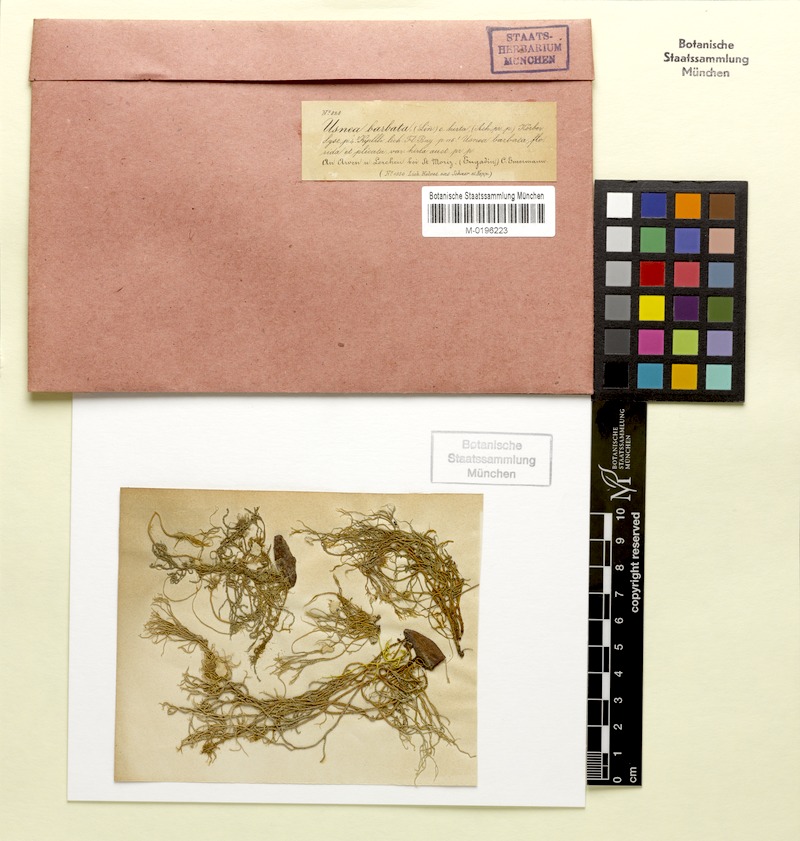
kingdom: Fungi
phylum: Ascomycota
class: Lecanoromycetes
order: Lecanorales
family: Parmeliaceae
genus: Usnea
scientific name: Usnea hirta
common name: Bristly beard lichen
